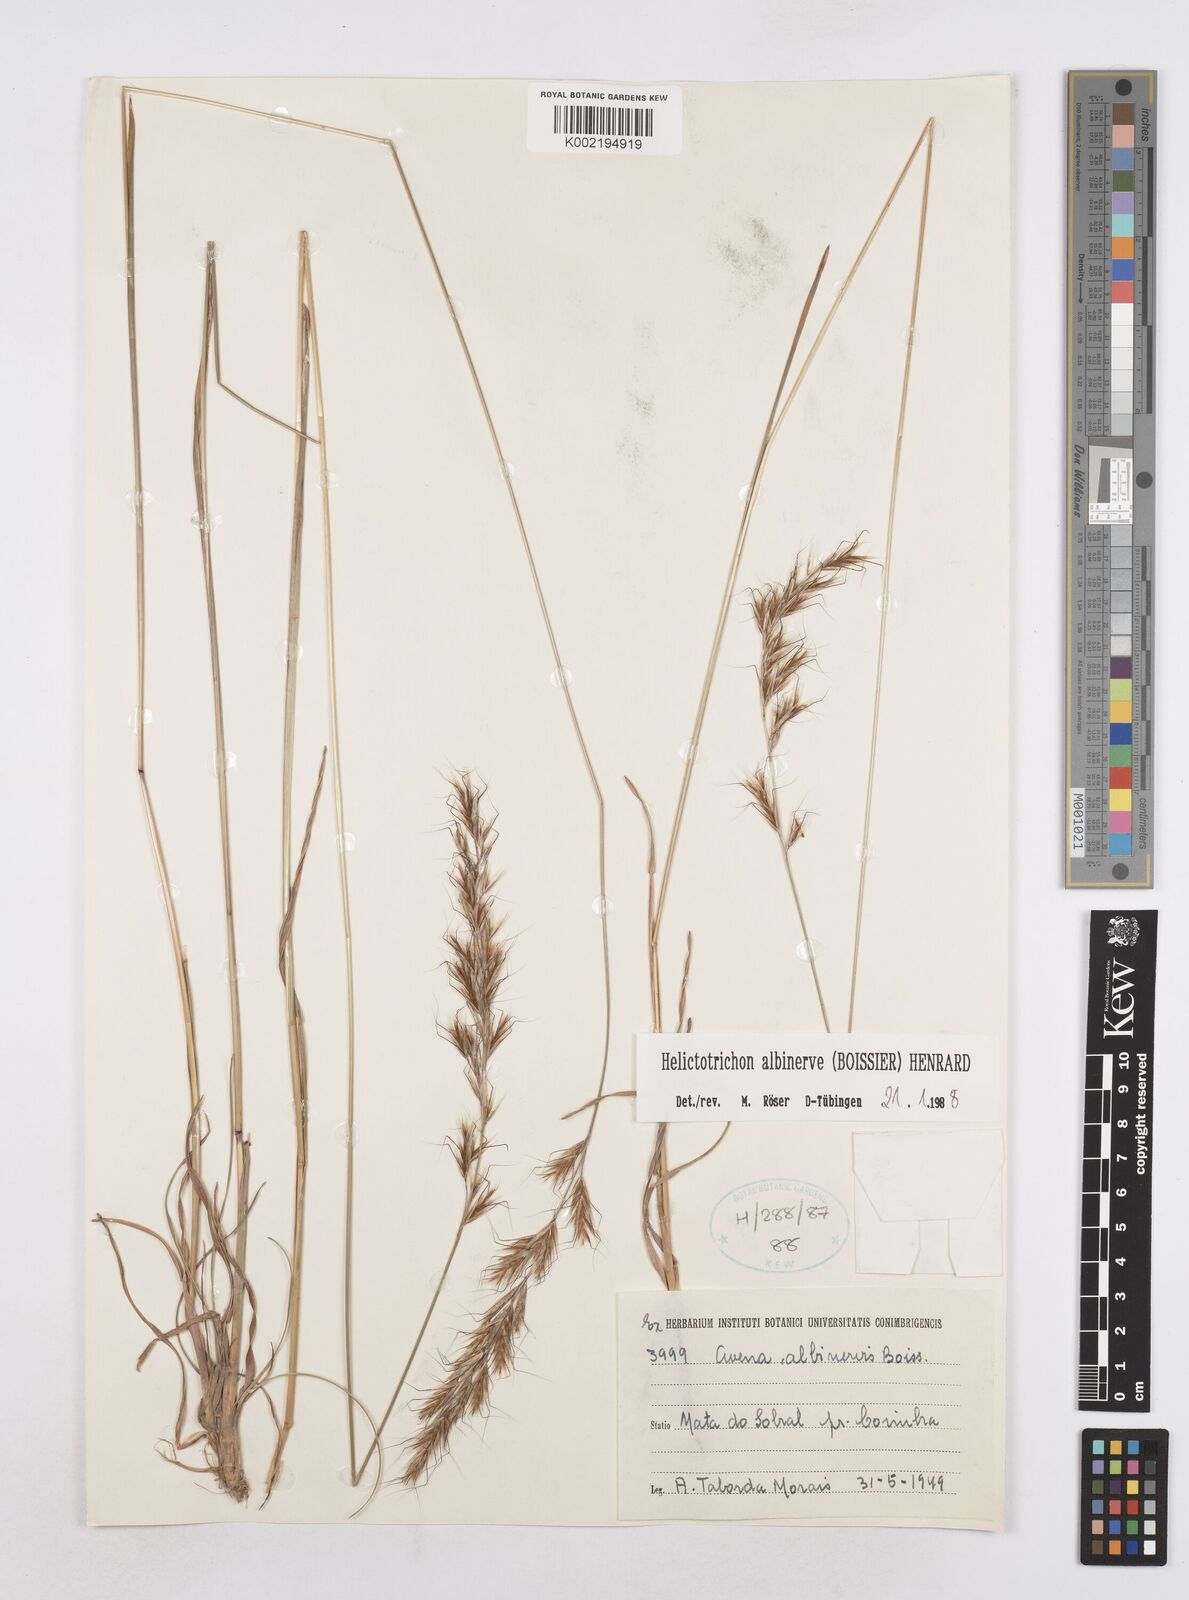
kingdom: Plantae
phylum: Tracheophyta
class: Liliopsida
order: Poales
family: Poaceae
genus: Helictochloa
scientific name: Helictochloa albinervis
